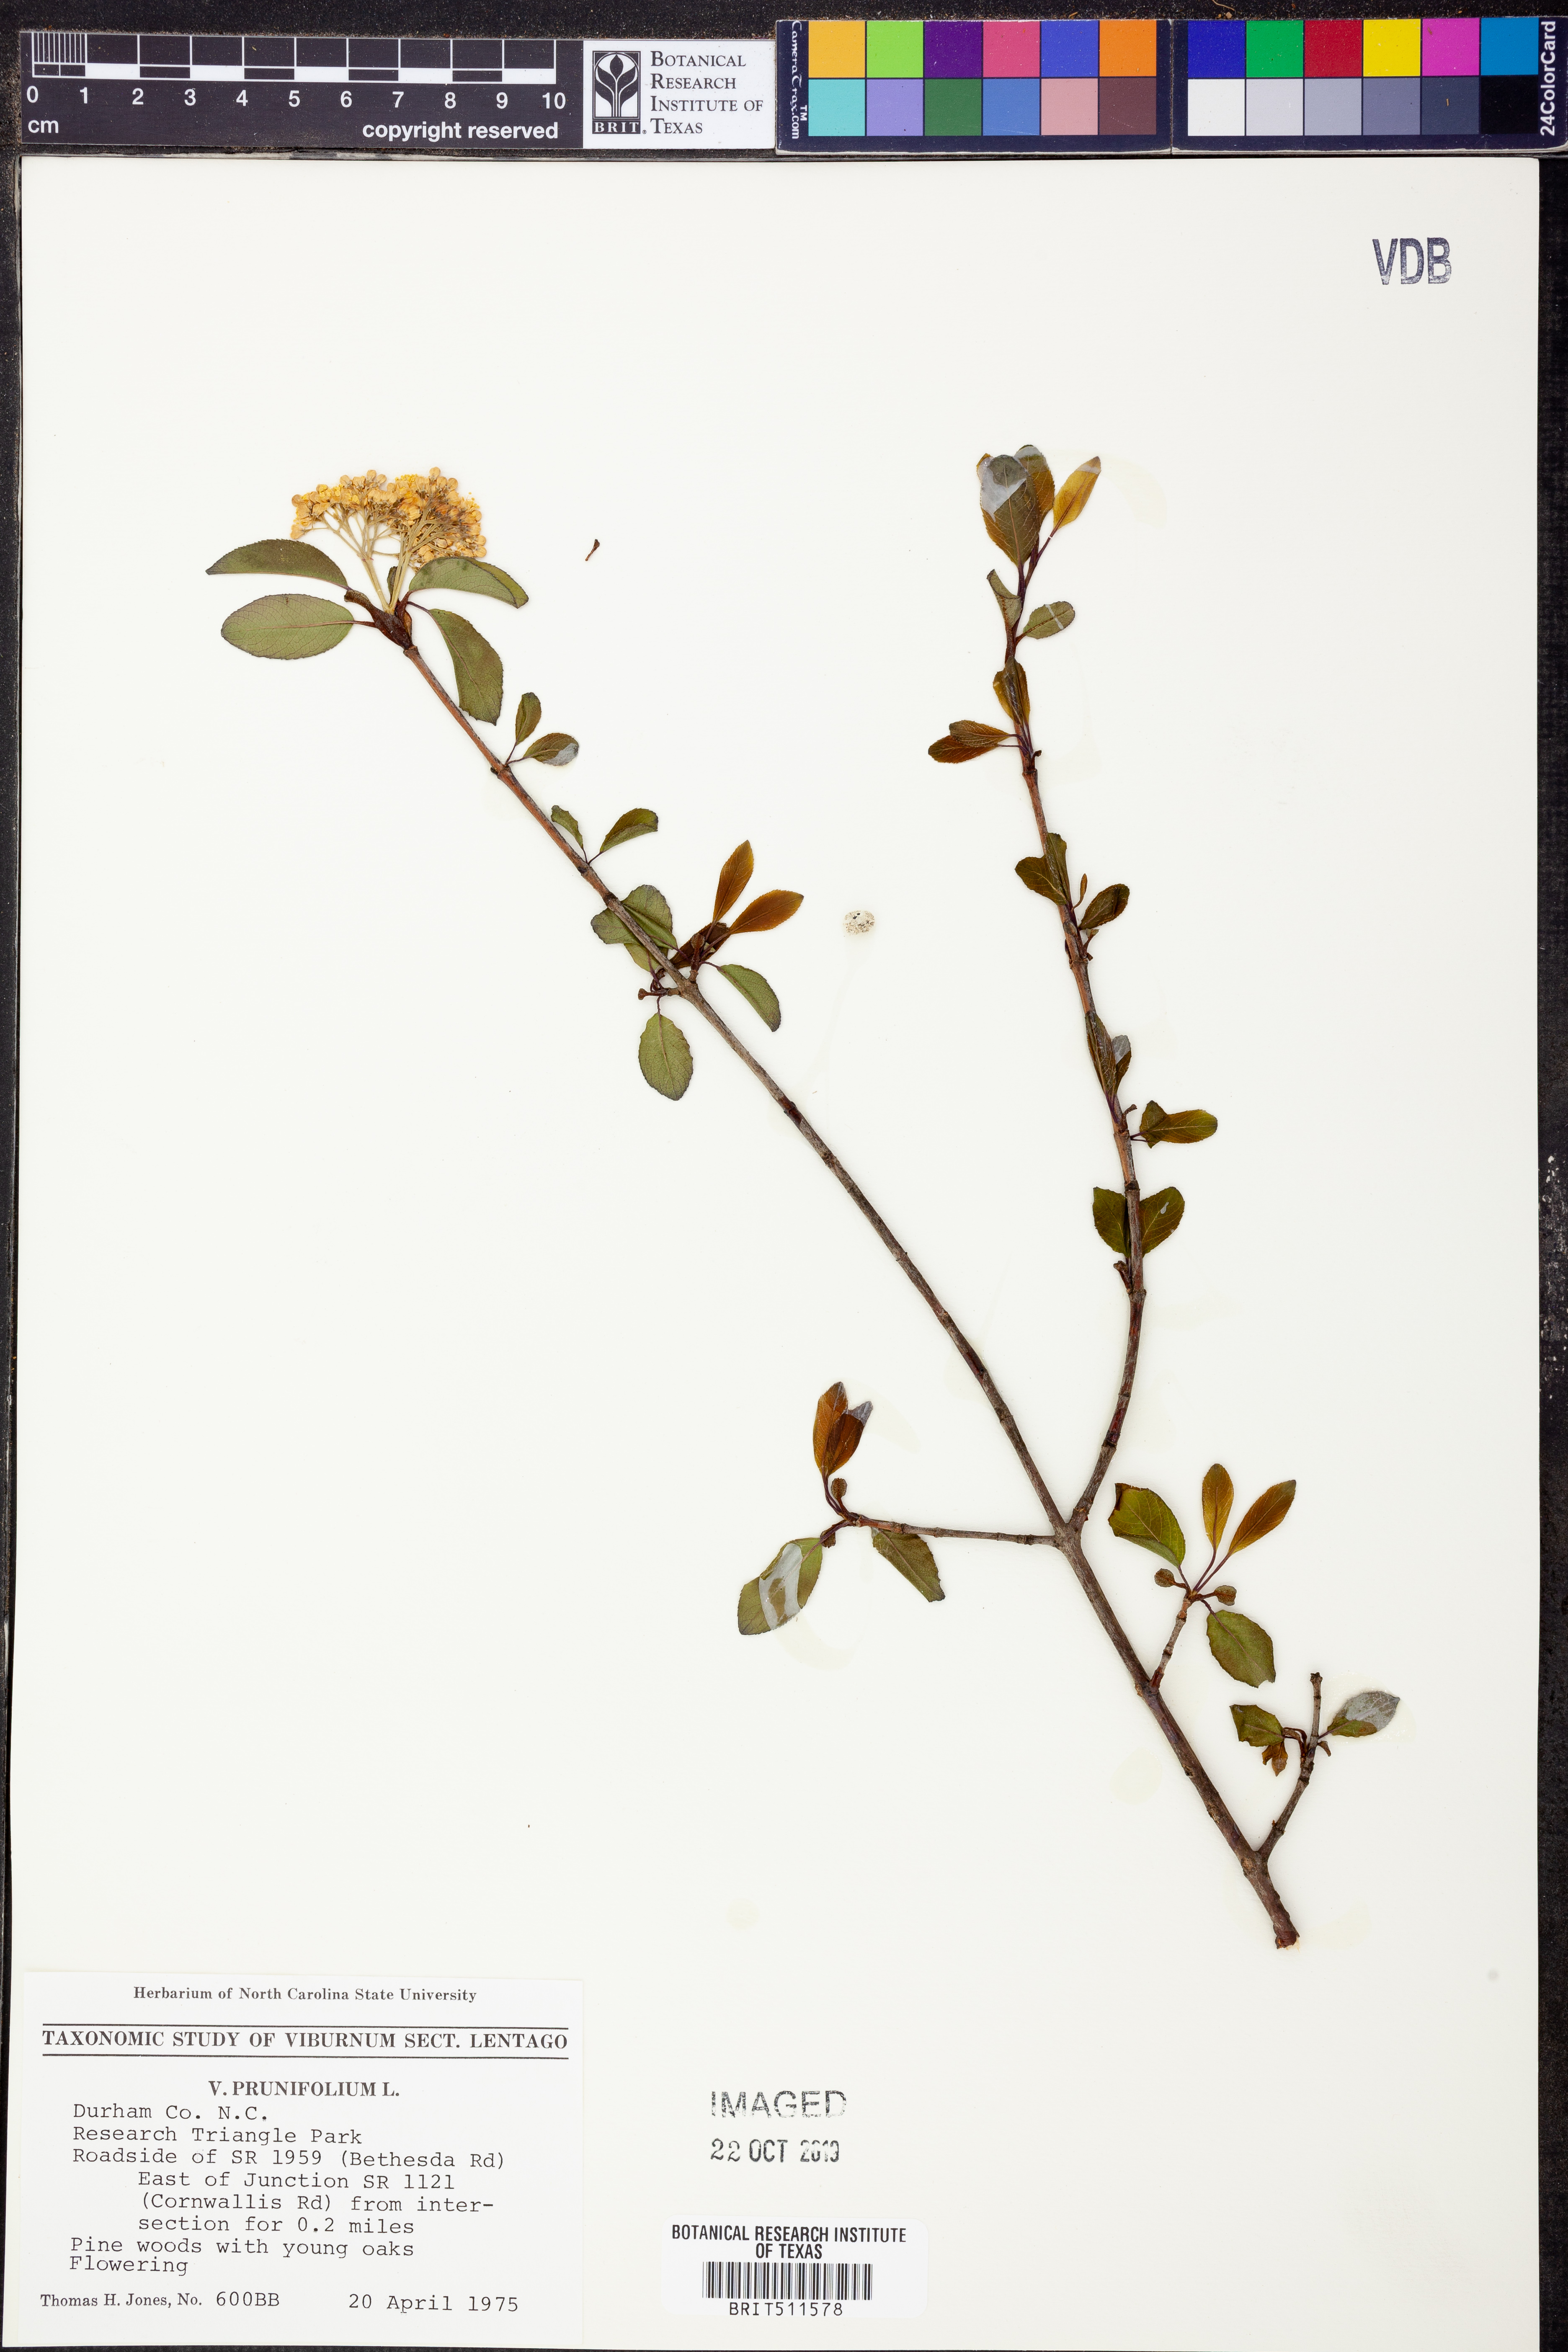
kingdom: Plantae
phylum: Tracheophyta
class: Magnoliopsida
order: Dipsacales
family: Viburnaceae
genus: Viburnum
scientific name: Viburnum prunifolium
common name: Black haw
